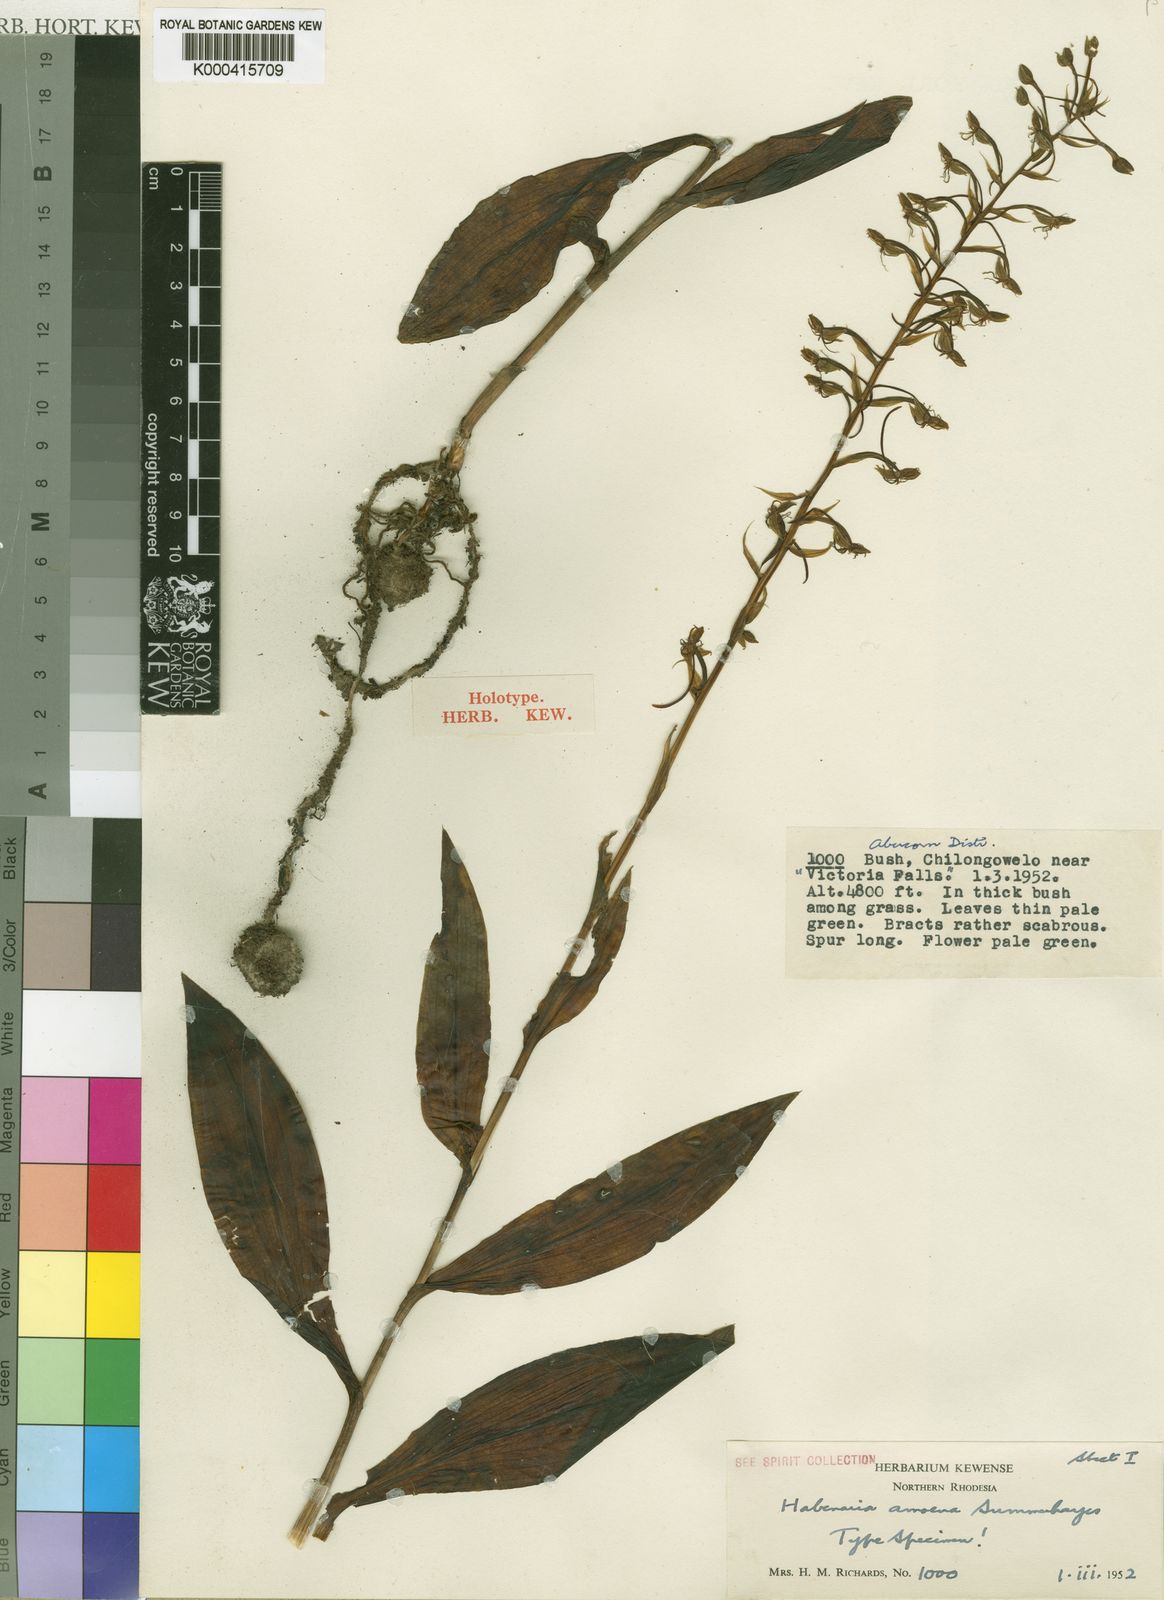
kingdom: Plantae
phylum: Tracheophyta
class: Liliopsida
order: Asparagales
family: Orchidaceae
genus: Habenaria
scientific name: Habenaria amoena
